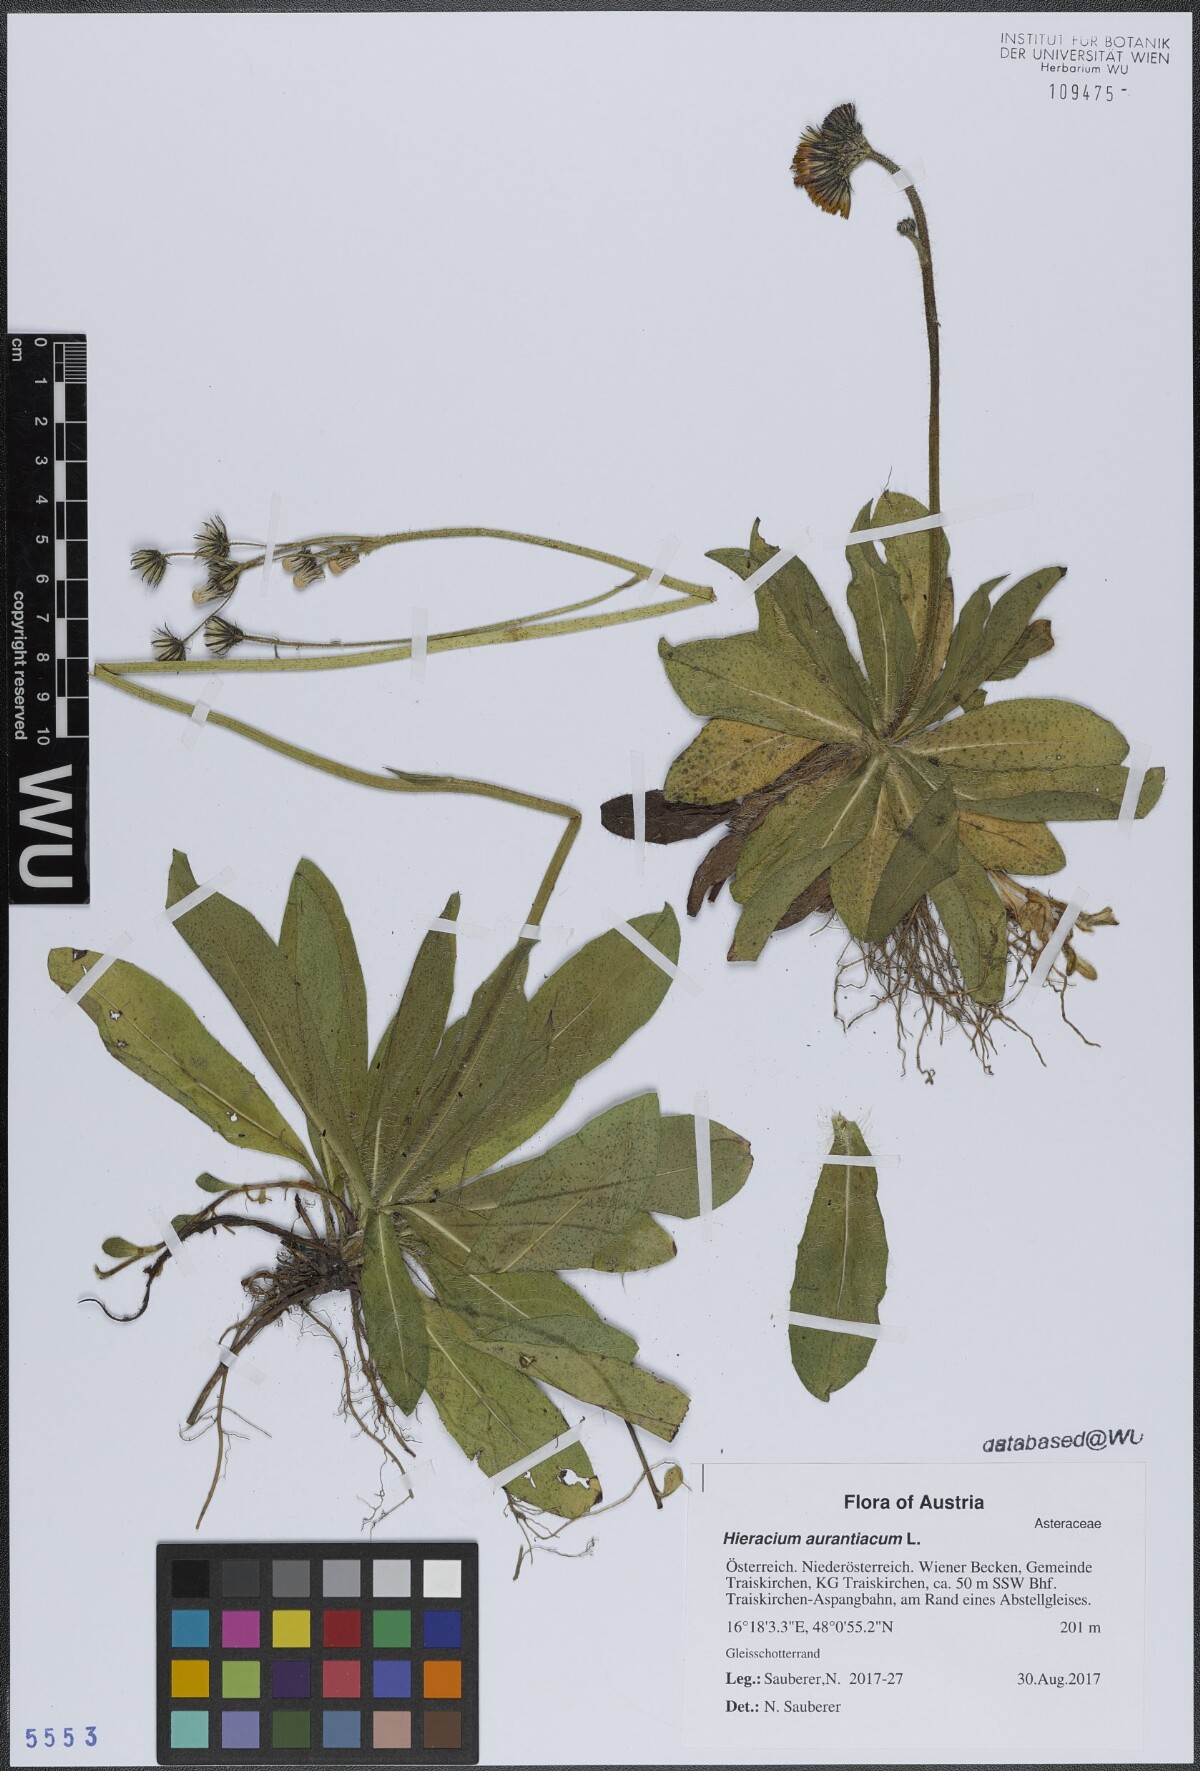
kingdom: Plantae
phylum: Tracheophyta
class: Magnoliopsida
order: Asterales
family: Asteraceae
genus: Pilosella
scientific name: Pilosella aurantiaca
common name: Fox-and-cubs
